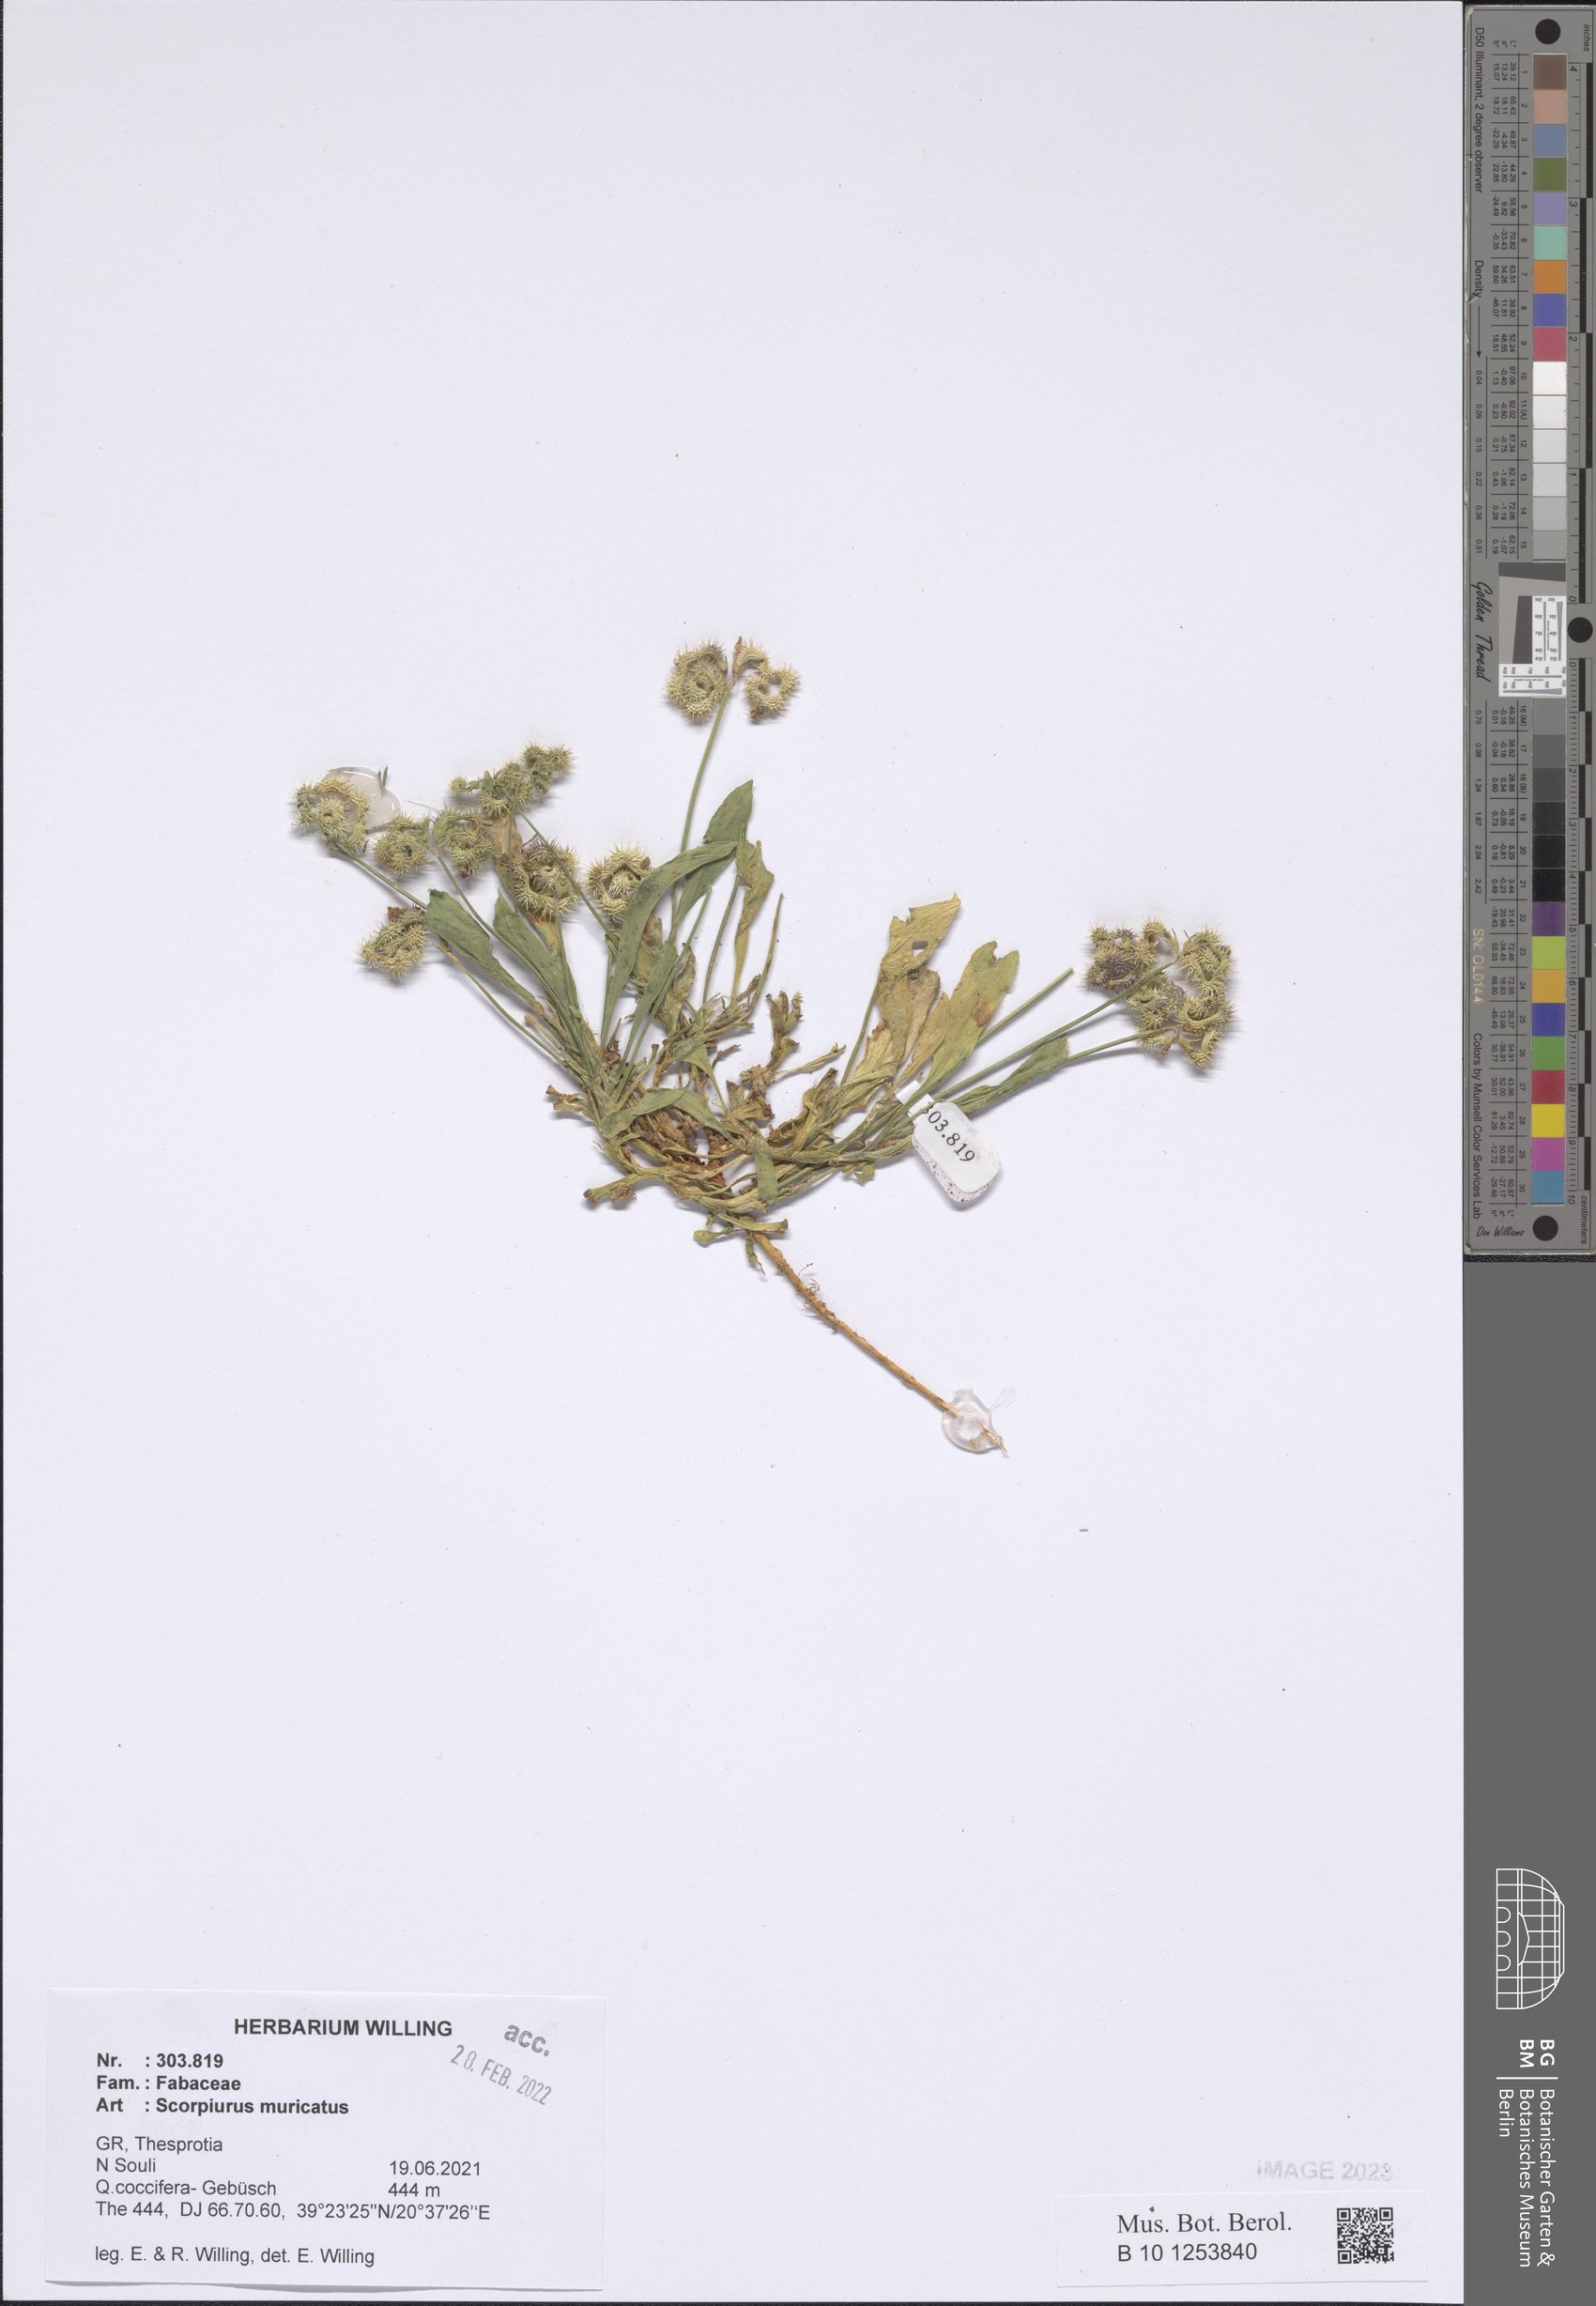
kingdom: Plantae
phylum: Tracheophyta
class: Magnoliopsida
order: Fabales
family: Fabaceae
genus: Scorpiurus
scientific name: Scorpiurus muricatus
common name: Caterpillar-plant
